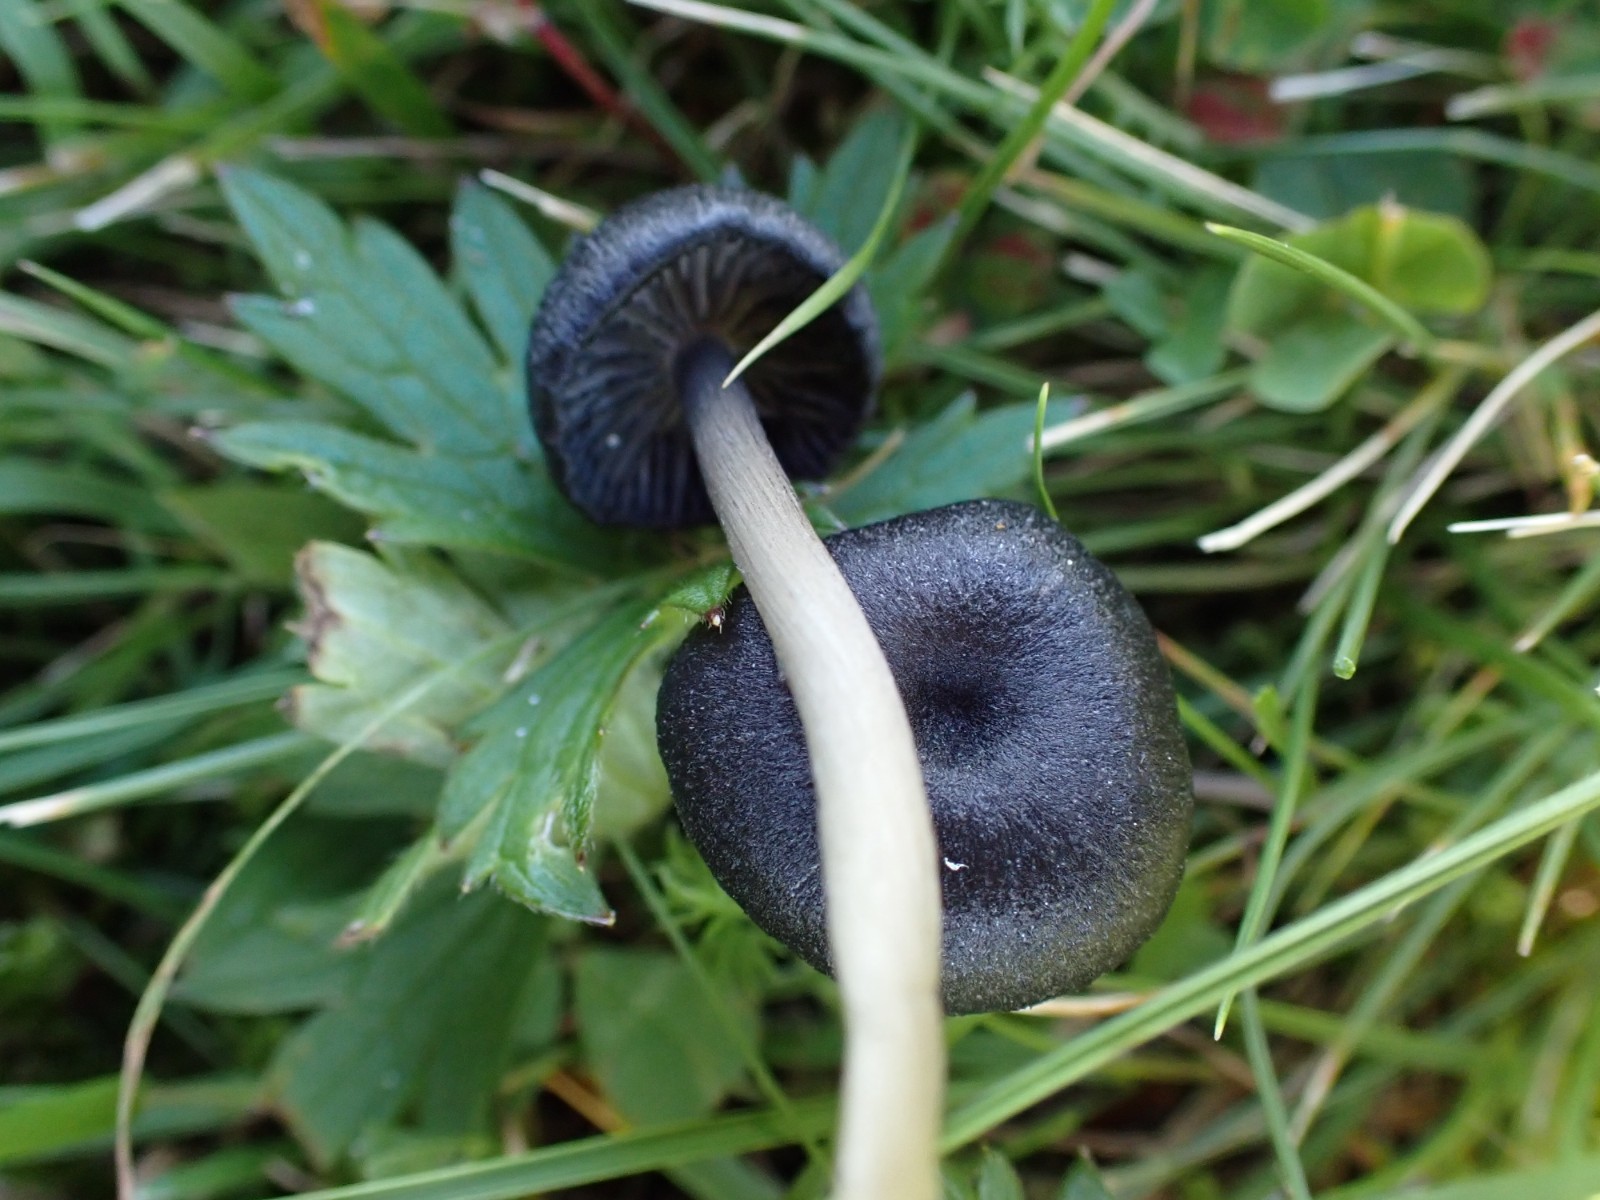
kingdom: Fungi
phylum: Basidiomycota
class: Agaricomycetes
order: Agaricales
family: Entolomataceae
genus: Entoloma
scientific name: Entoloma
